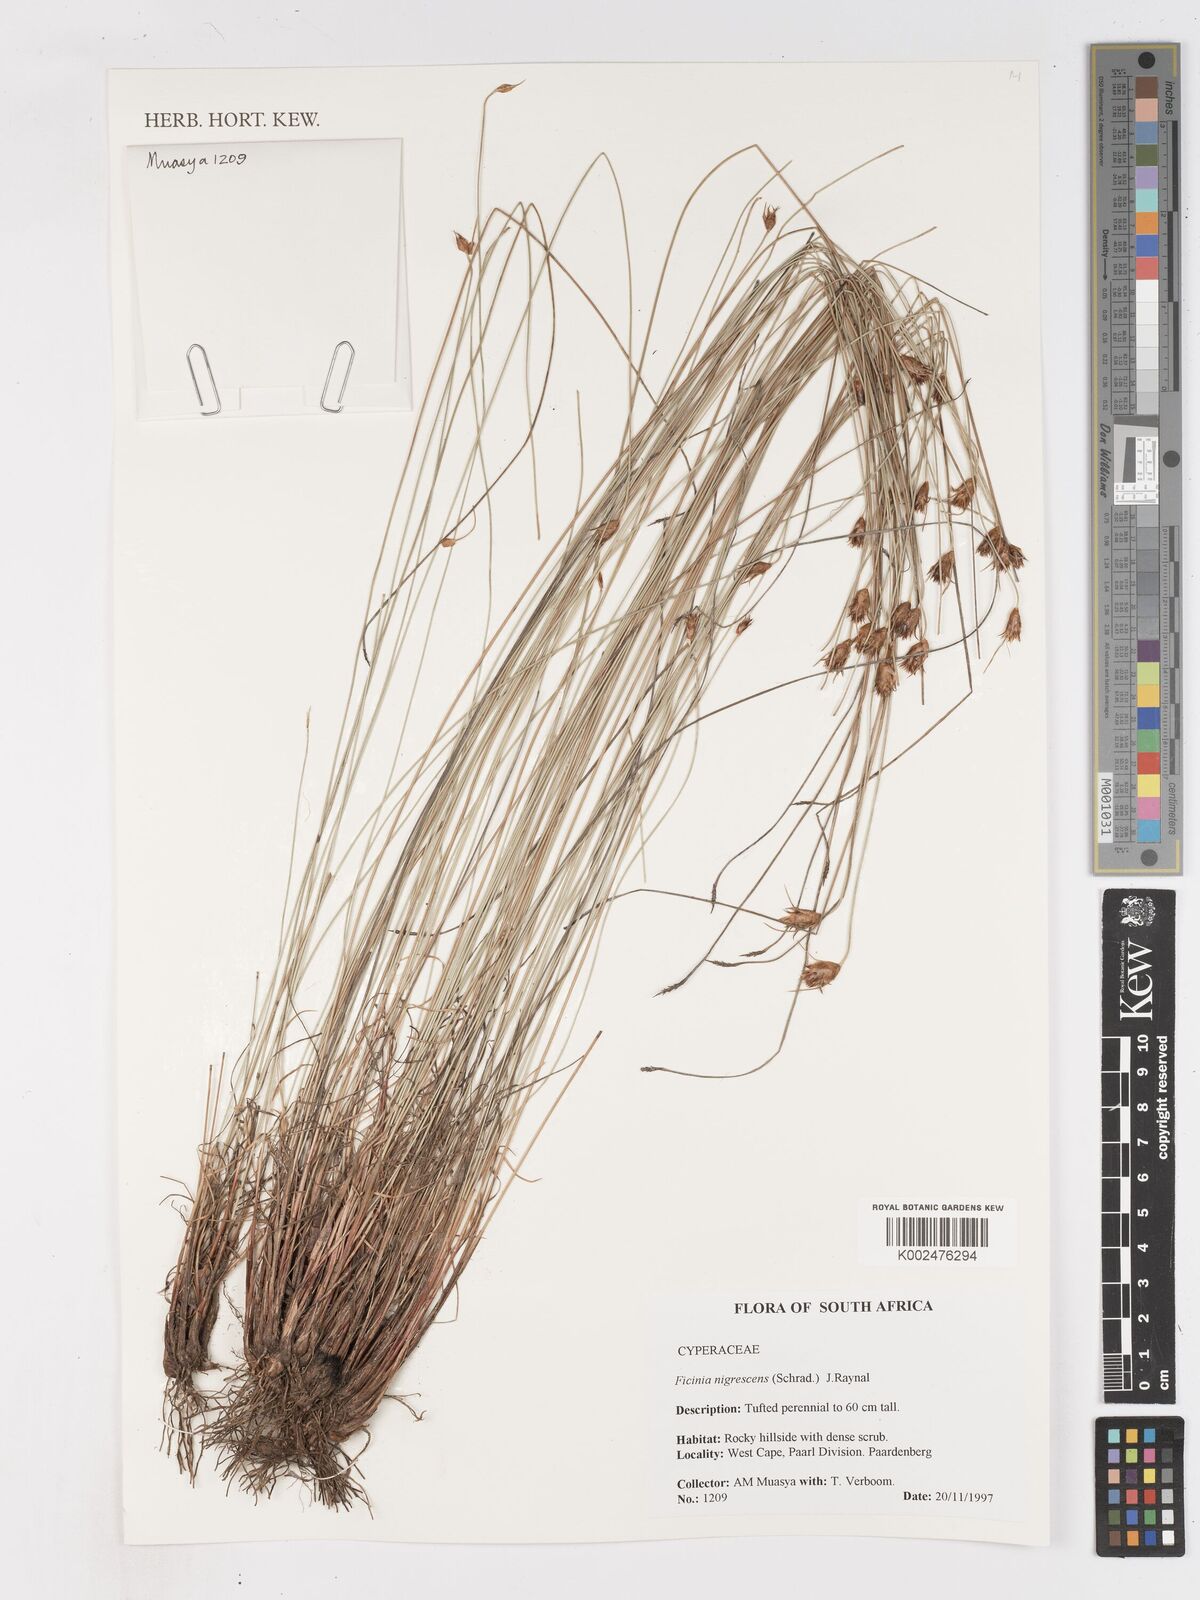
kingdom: Plantae
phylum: Tracheophyta
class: Liliopsida
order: Poales
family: Cyperaceae
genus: Ficinia
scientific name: Ficinia nigrescens
